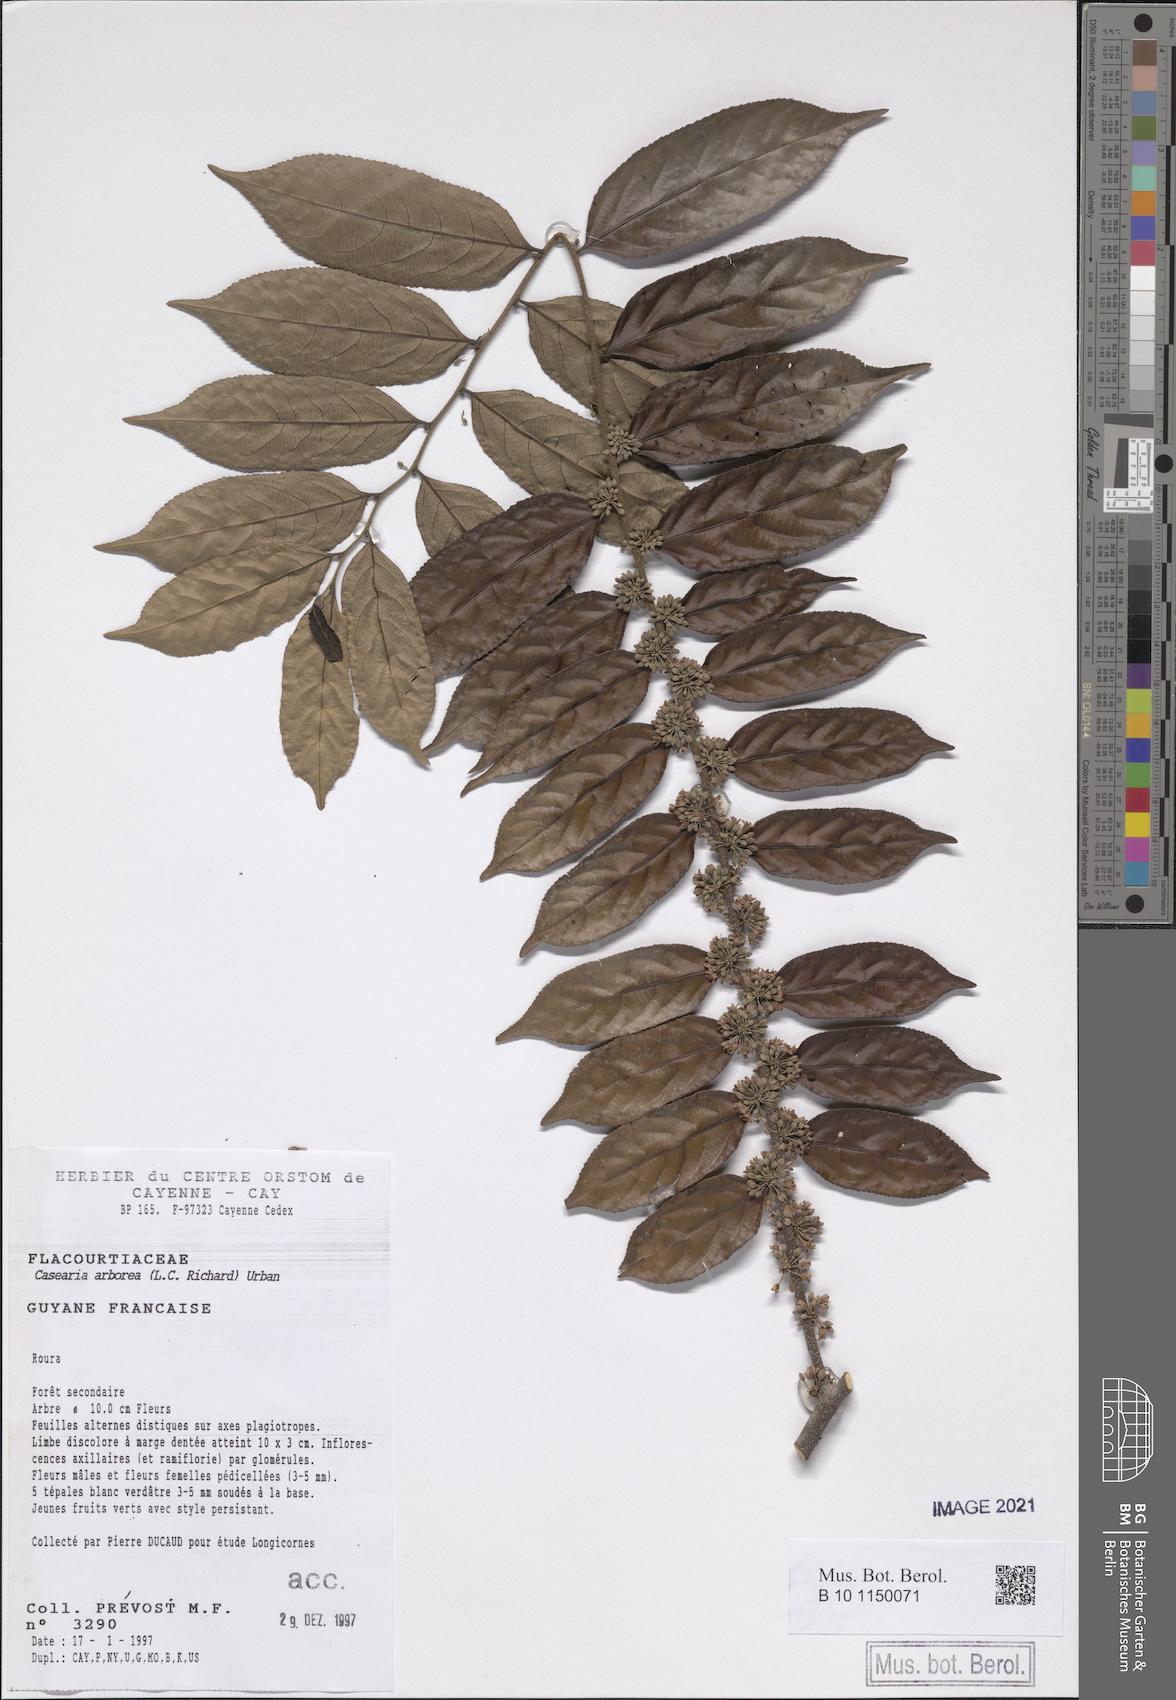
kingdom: Plantae
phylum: Tracheophyta
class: Magnoliopsida
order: Malpighiales
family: Salicaceae
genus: Casearia
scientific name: Casearia arborea
